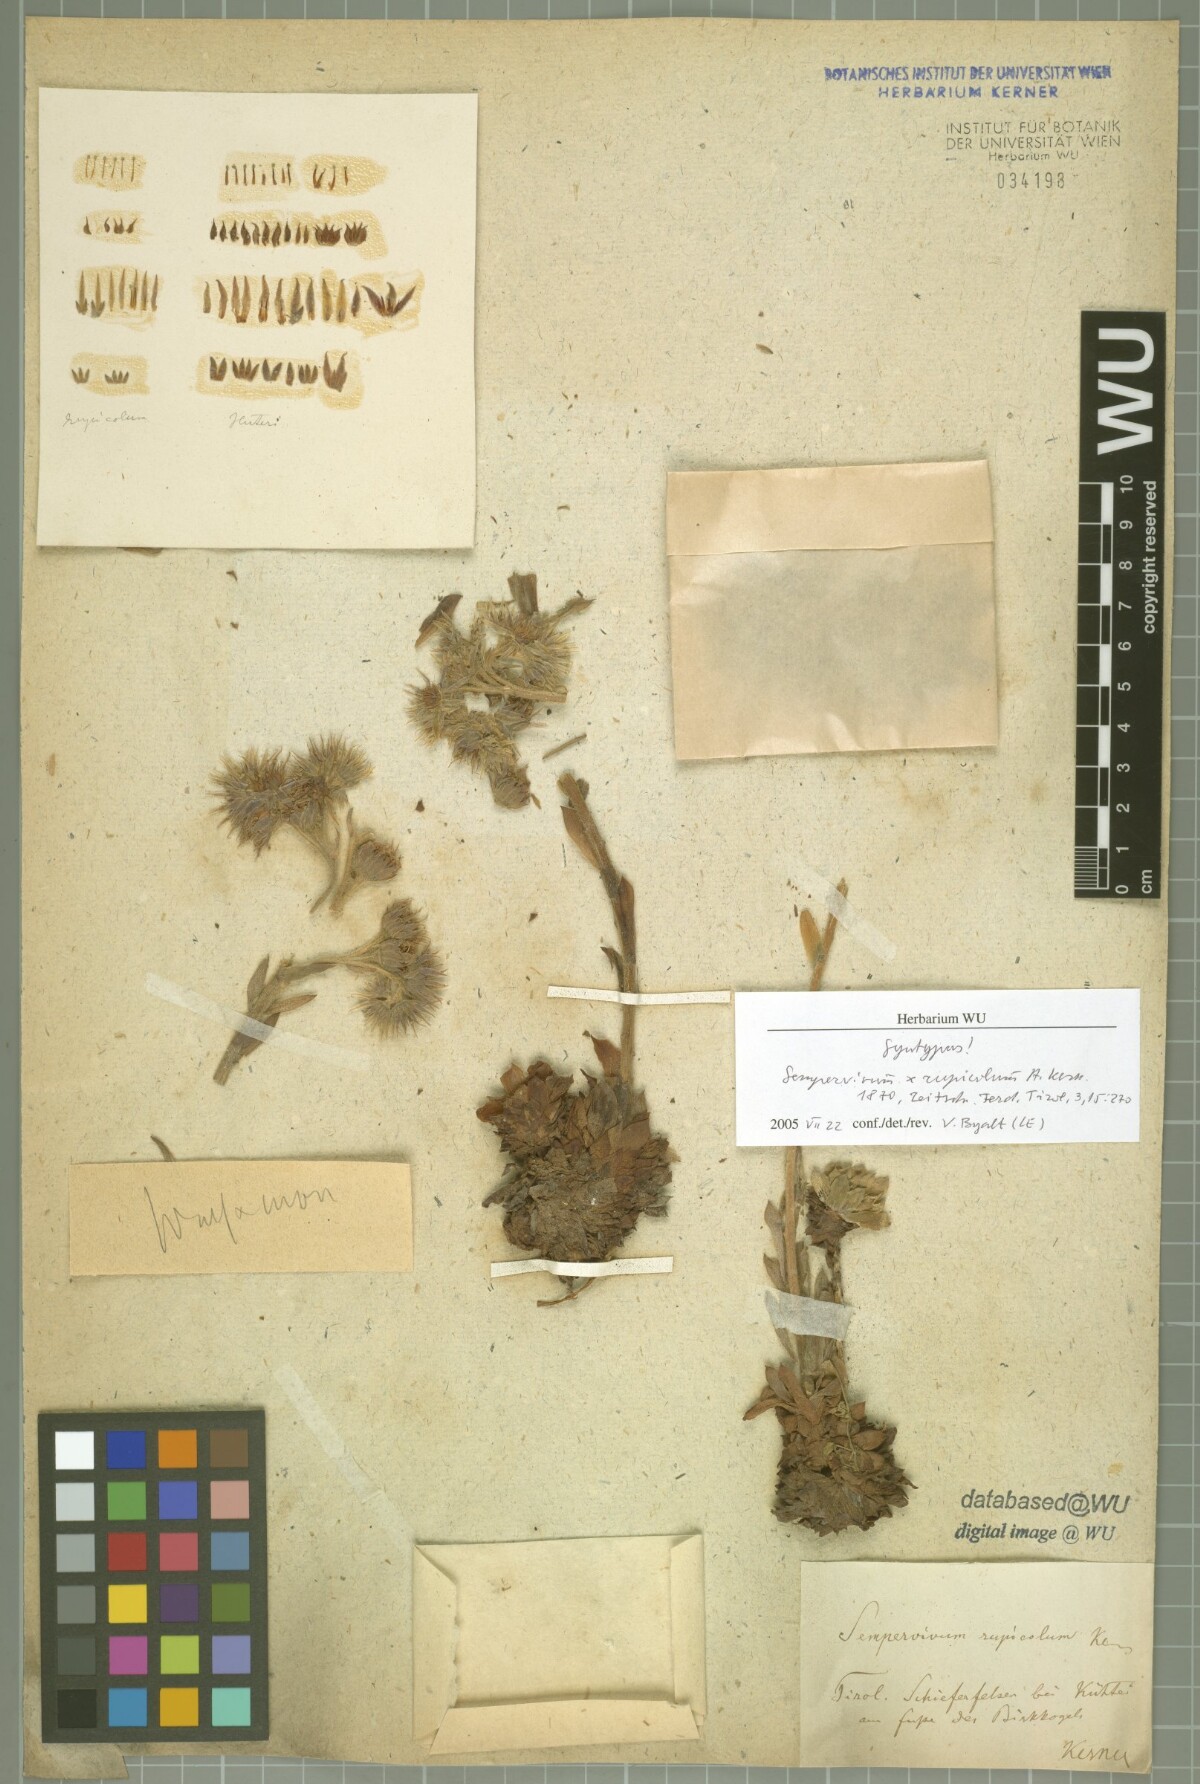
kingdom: Plantae
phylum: Tracheophyta
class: Magnoliopsida
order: Saxifragales
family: Crassulaceae
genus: Sempervivum
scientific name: Sempervivum rupicola
